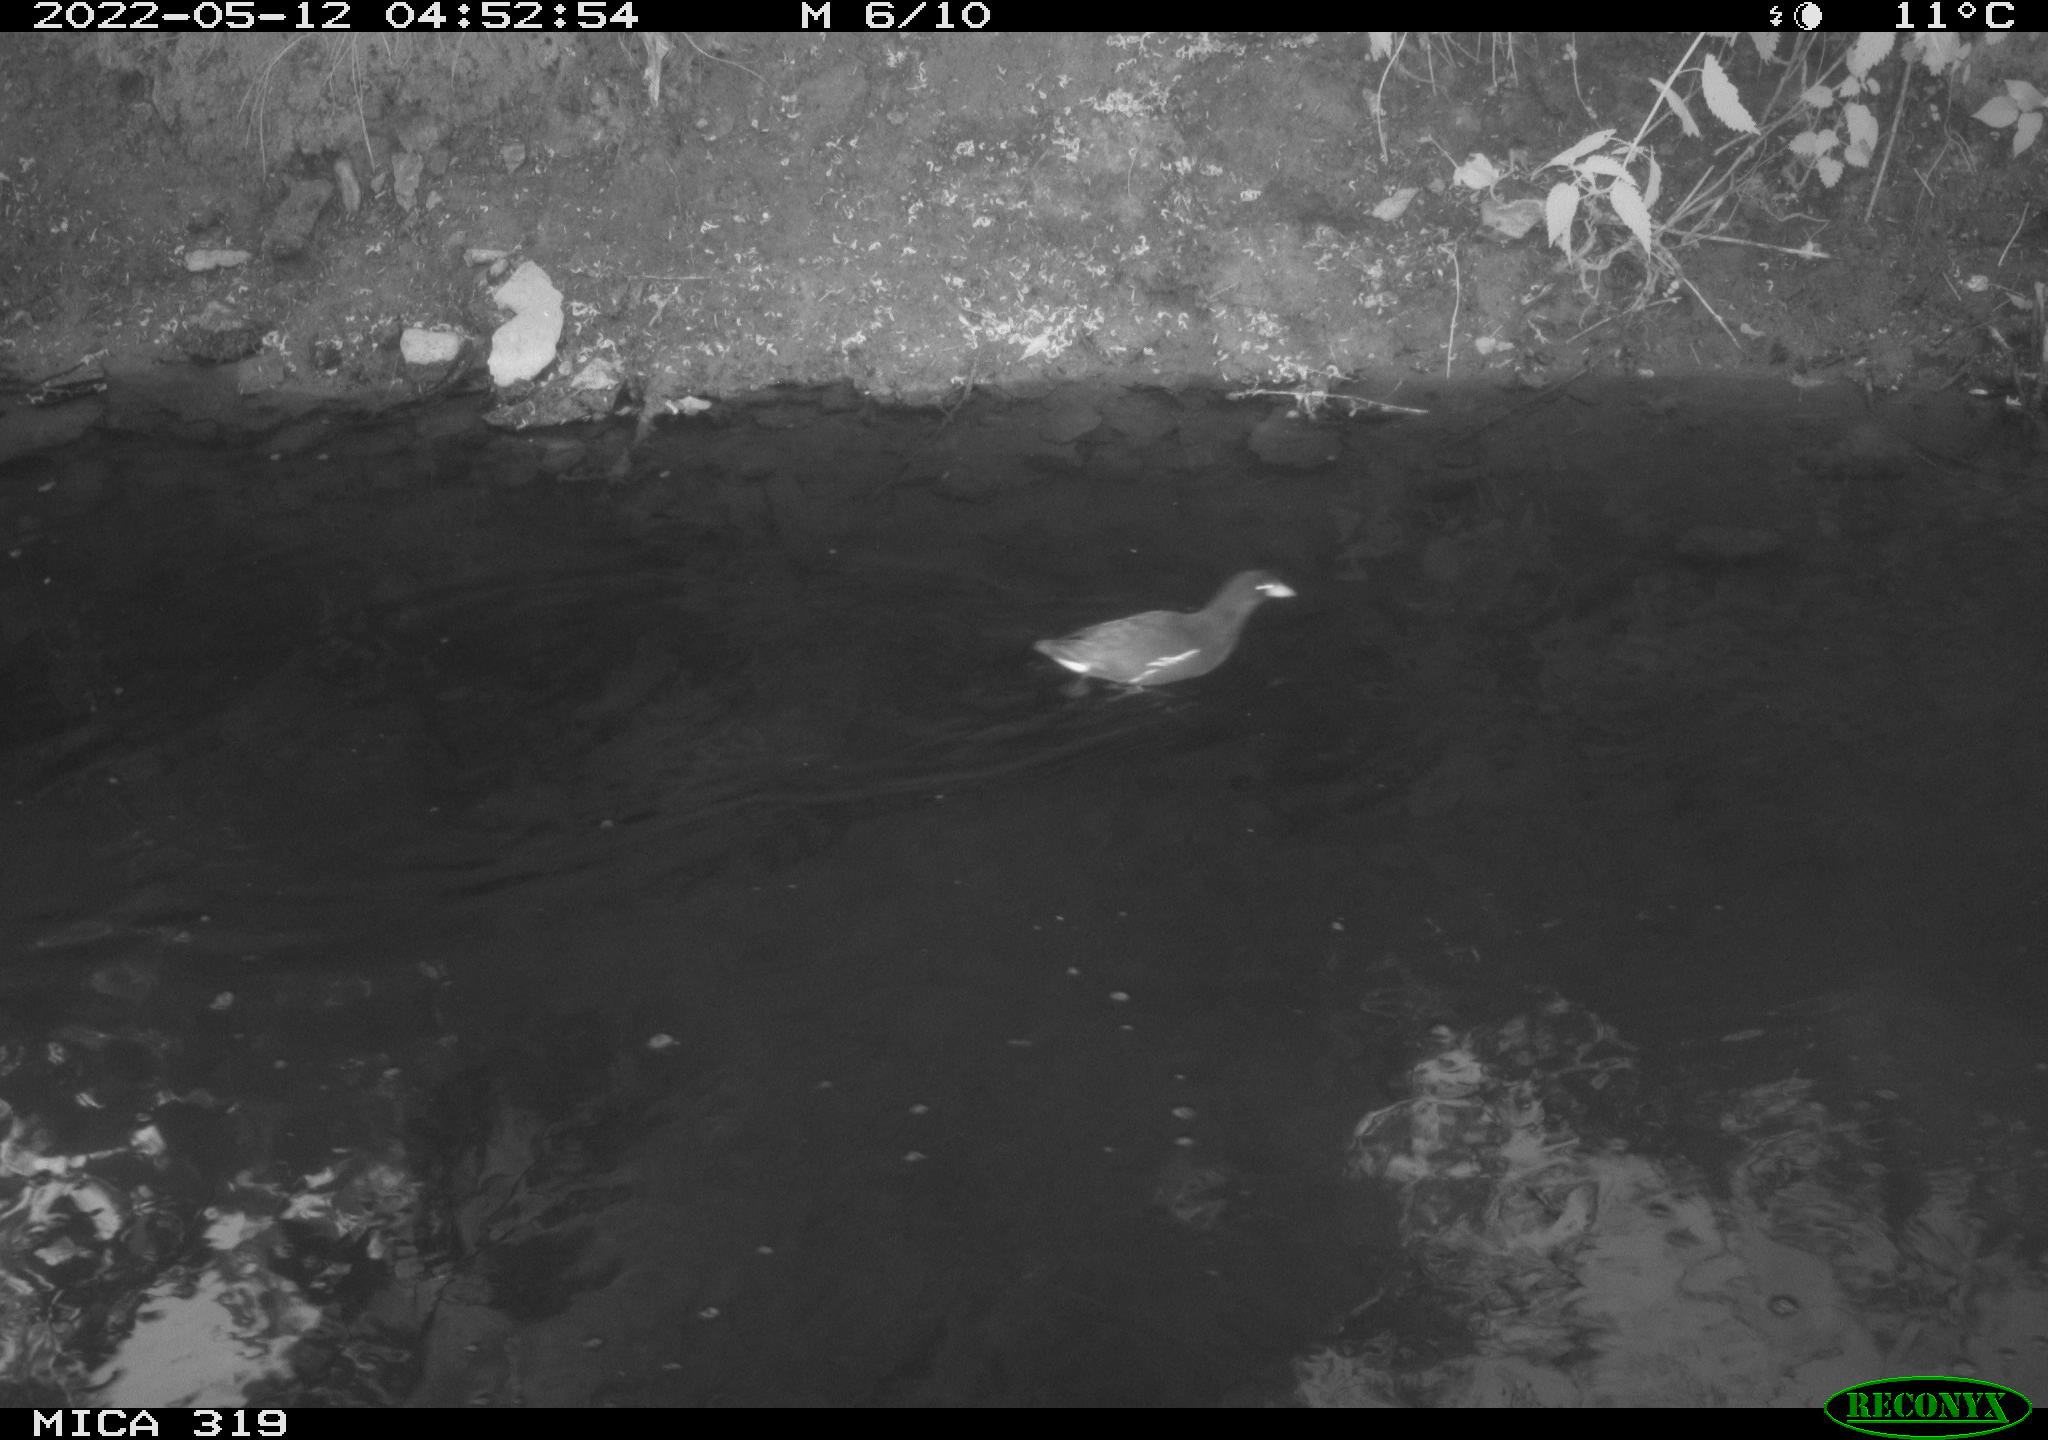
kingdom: Animalia
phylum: Chordata
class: Aves
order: Gruiformes
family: Rallidae
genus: Gallinula
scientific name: Gallinula chloropus
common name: Common moorhen
